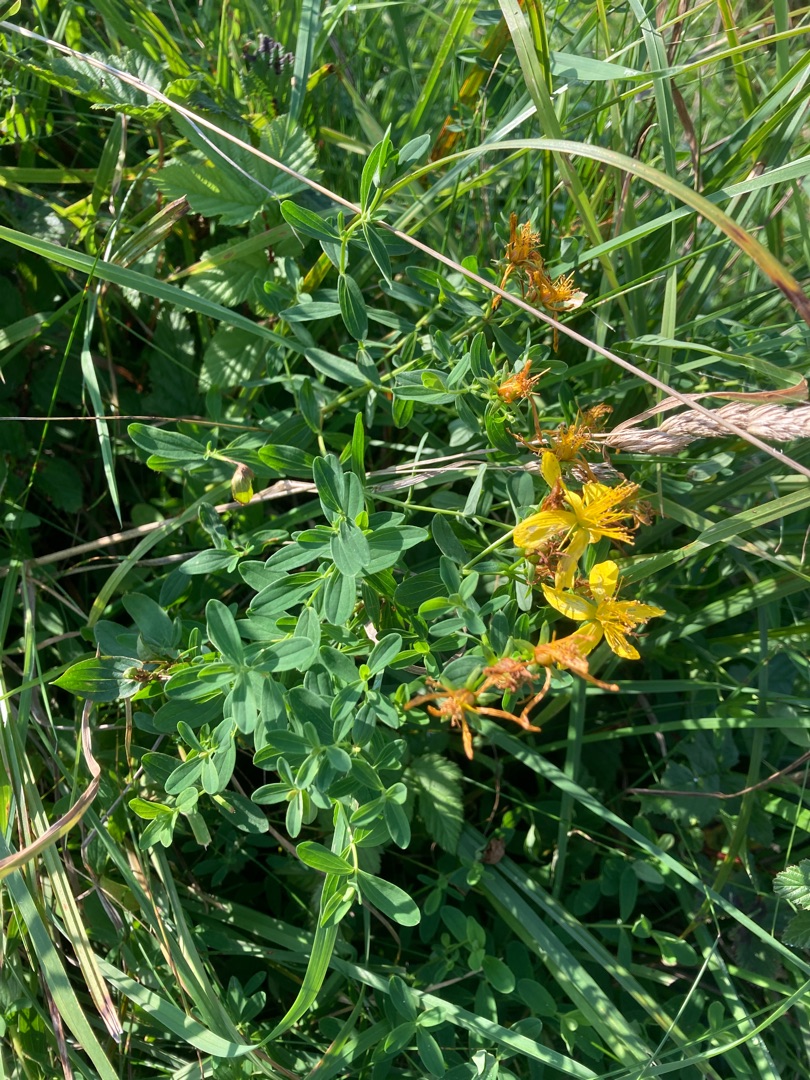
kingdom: Plantae
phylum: Tracheophyta
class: Magnoliopsida
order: Malpighiales
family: Hypericaceae
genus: Hypericum
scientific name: Hypericum perforatum
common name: Prikbladet perikon
